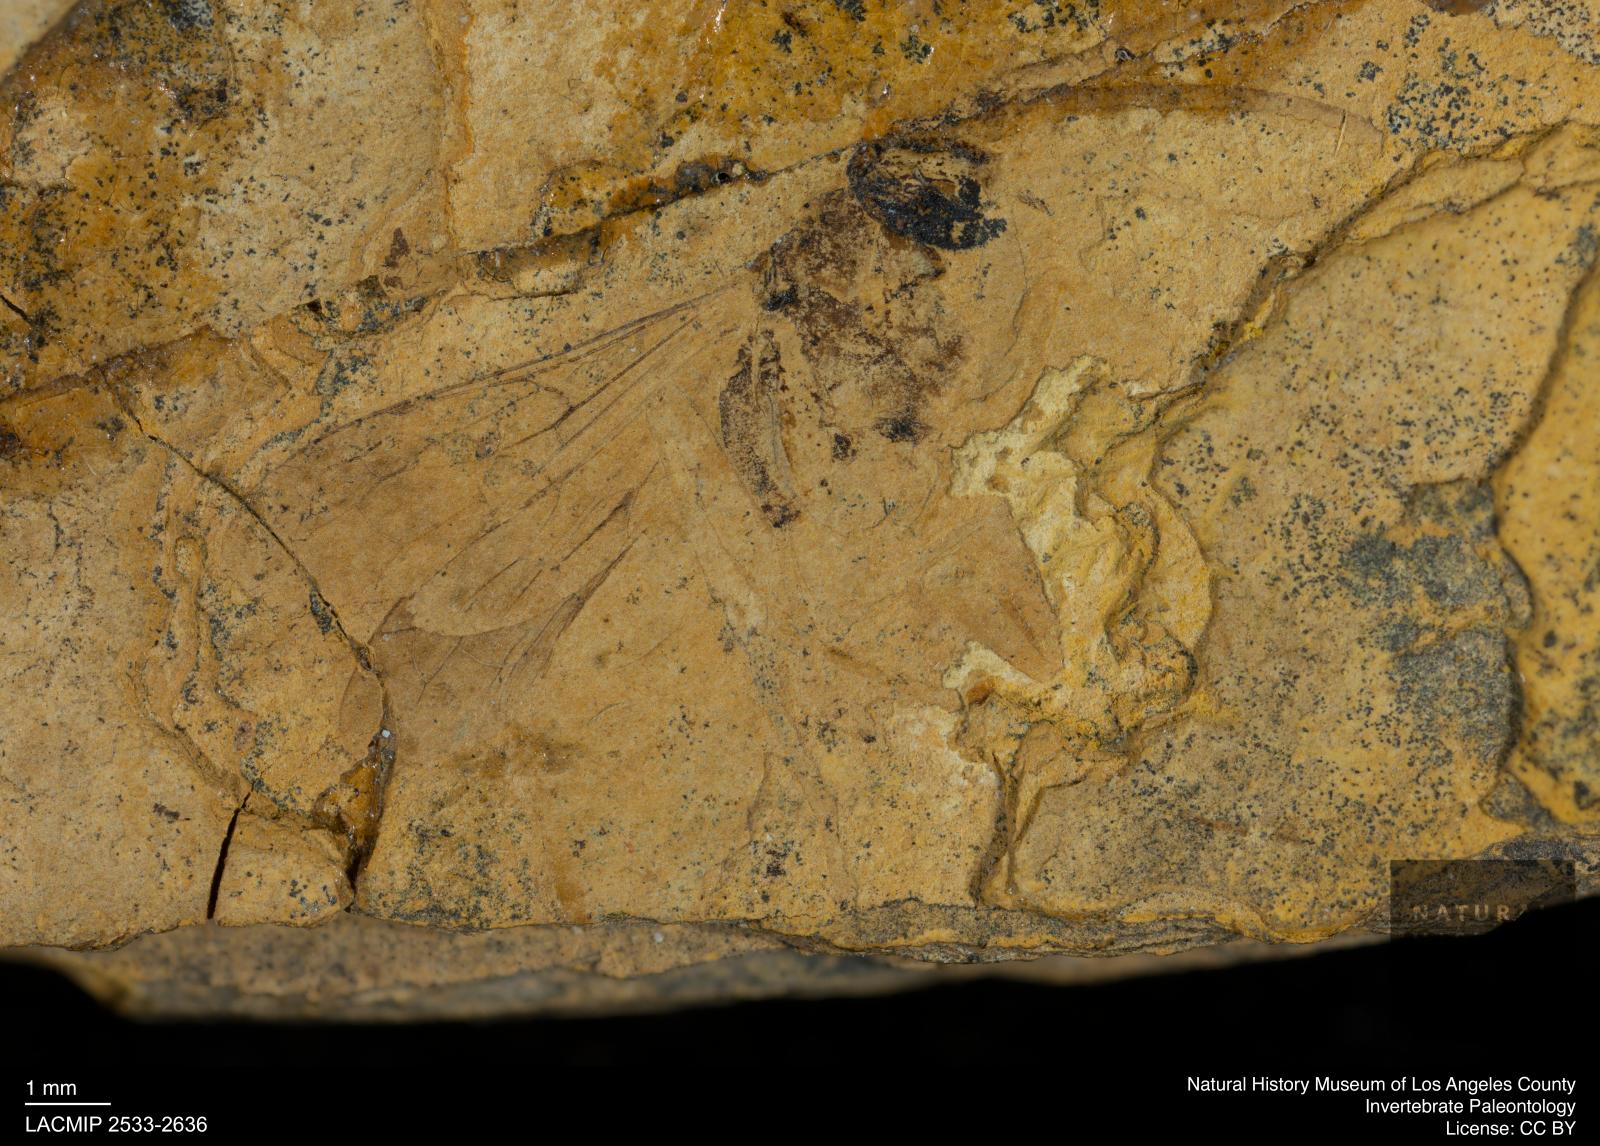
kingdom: Animalia
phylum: Arthropoda
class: Insecta
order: Hymenoptera
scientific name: Hymenoptera
